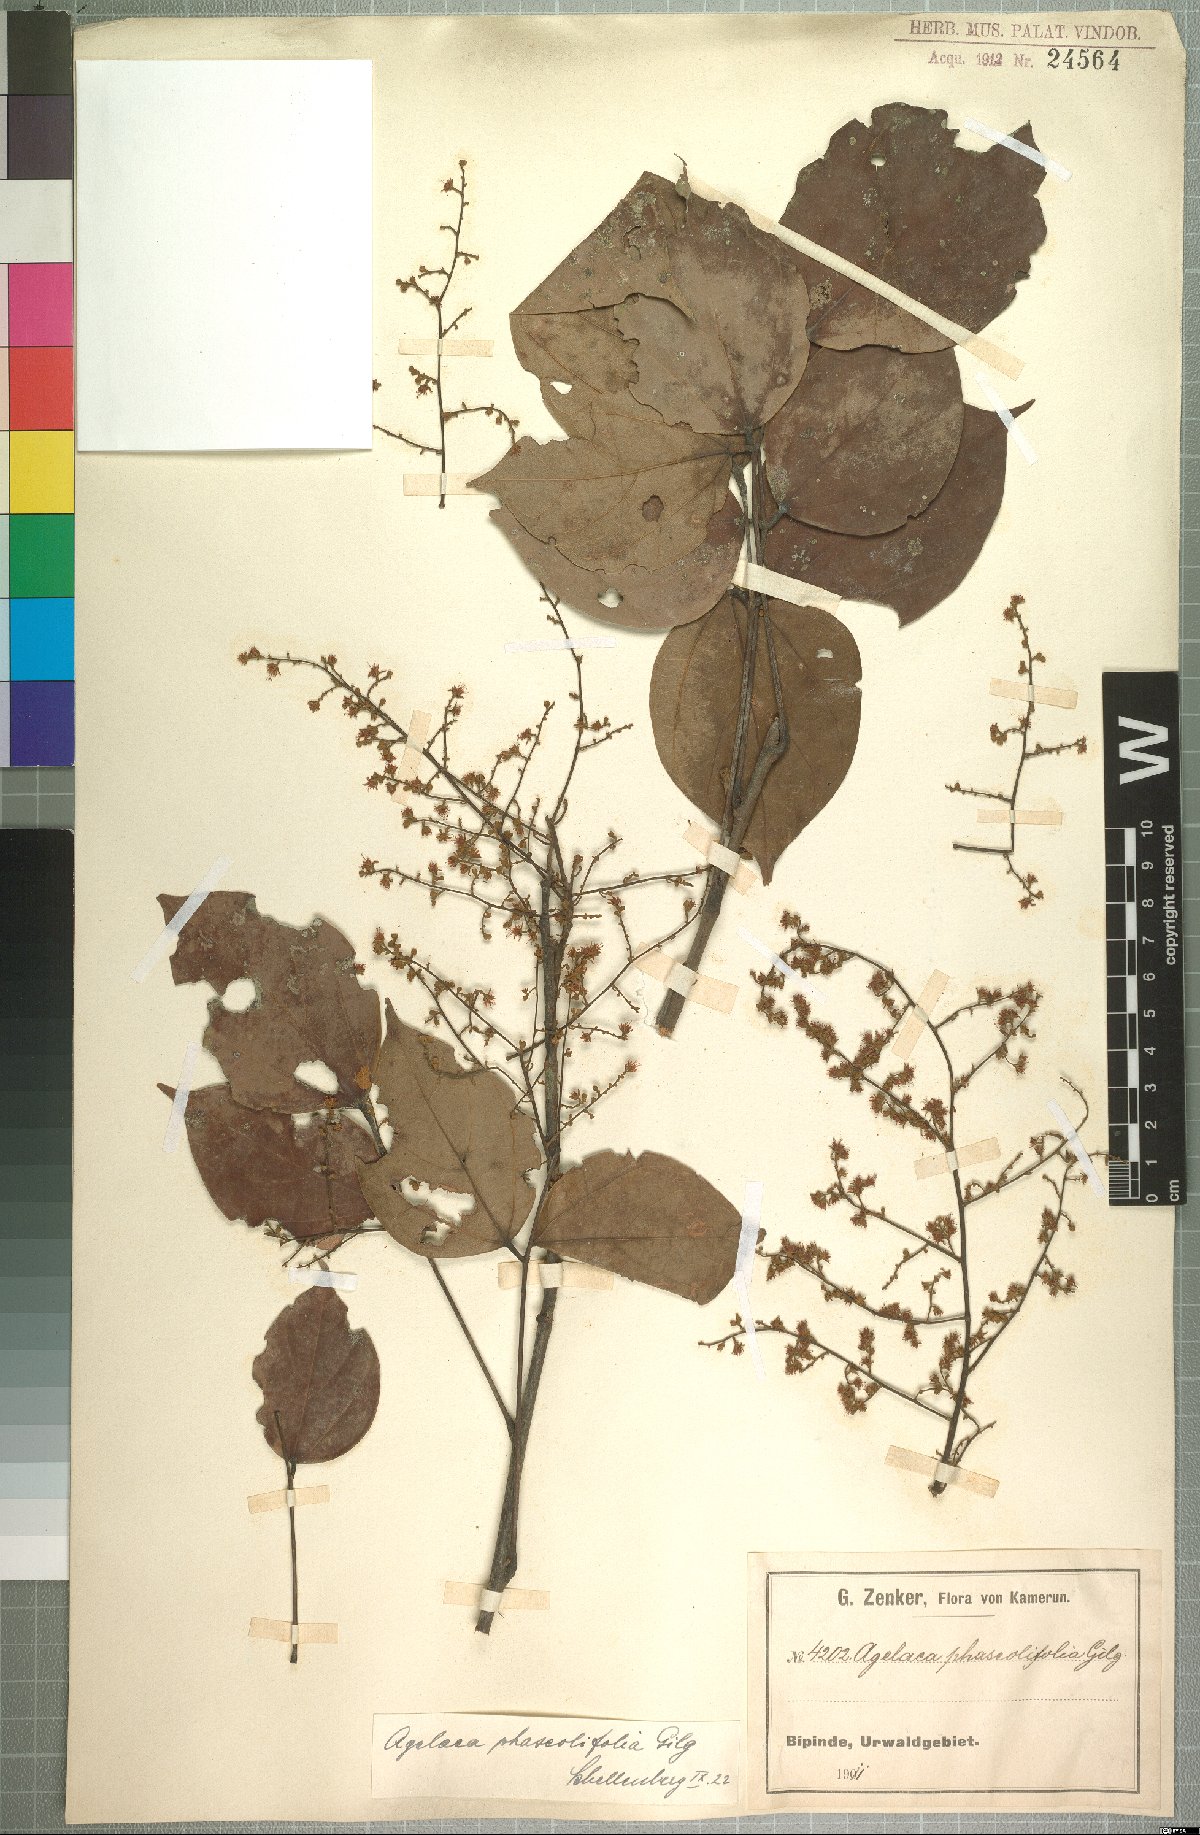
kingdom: Plantae
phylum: Tracheophyta
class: Magnoliopsida
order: Oxalidales
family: Connaraceae
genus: Agelaea
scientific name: Agelaea pentagyna
